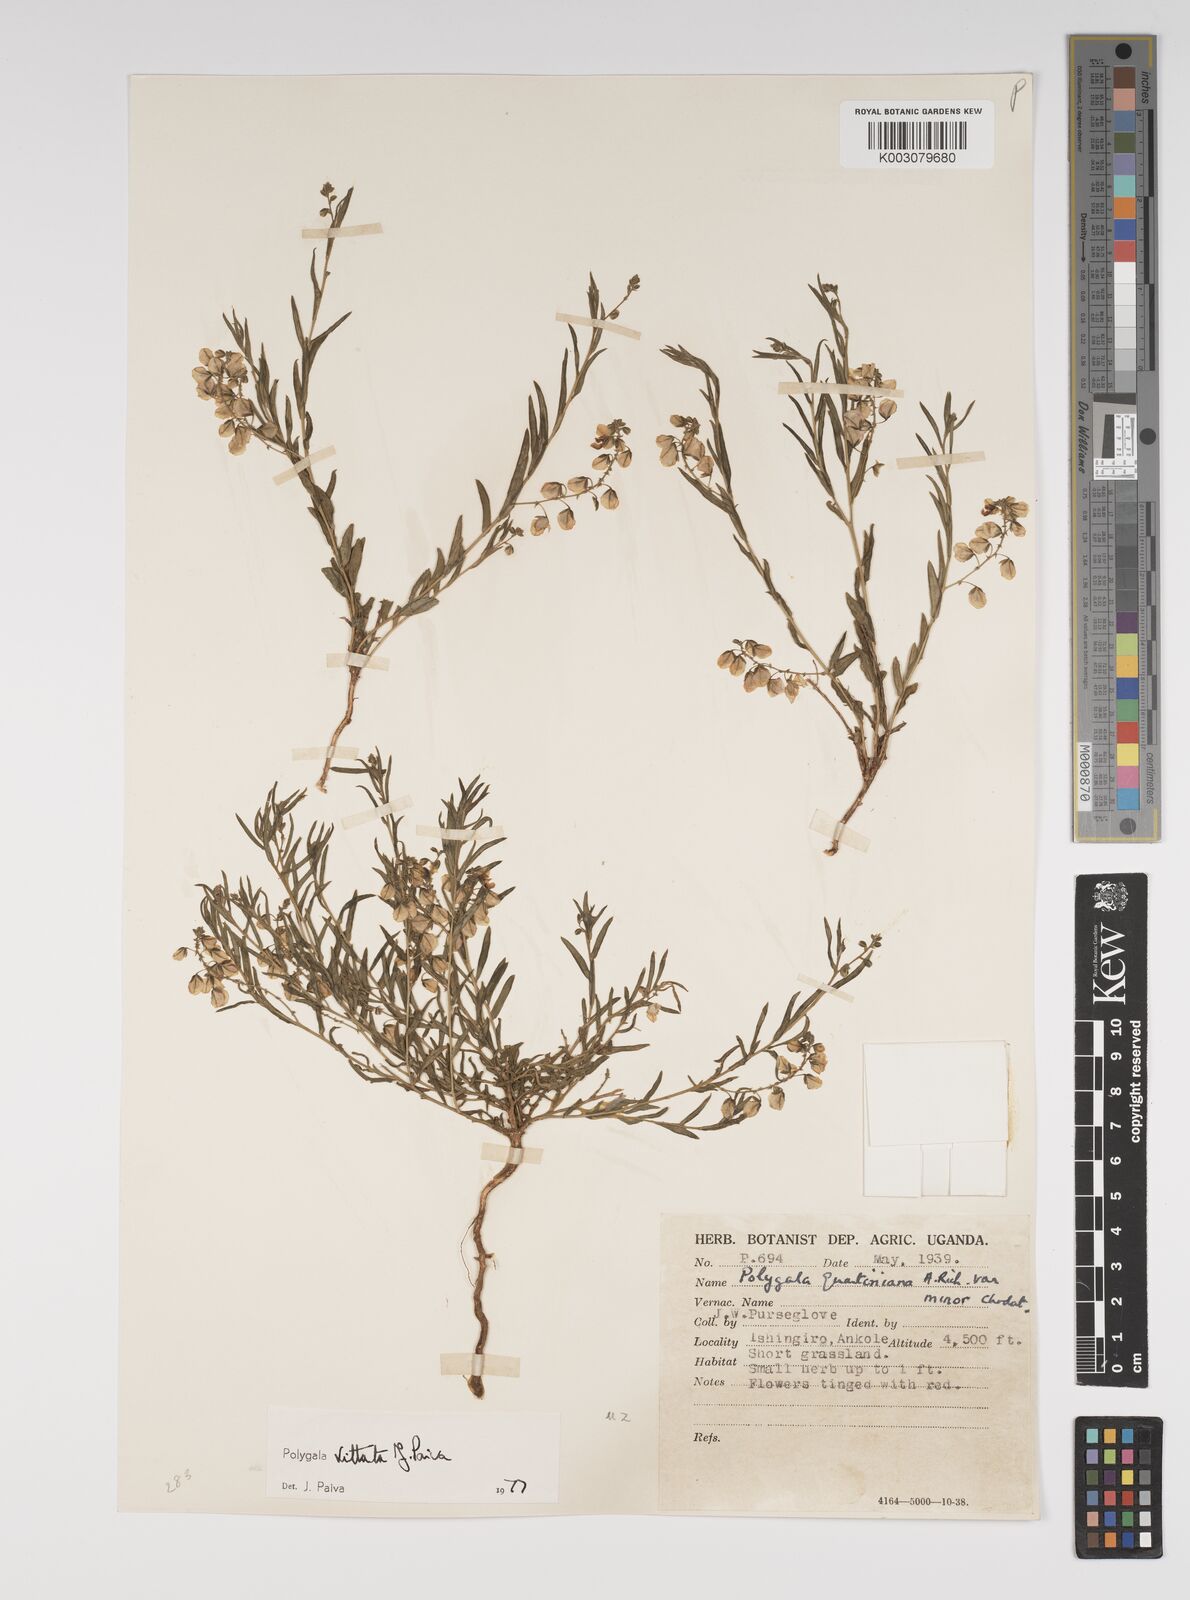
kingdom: Plantae
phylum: Tracheophyta
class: Magnoliopsida
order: Fabales
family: Polygalaceae
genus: Polygala
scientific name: Polygala vittata
